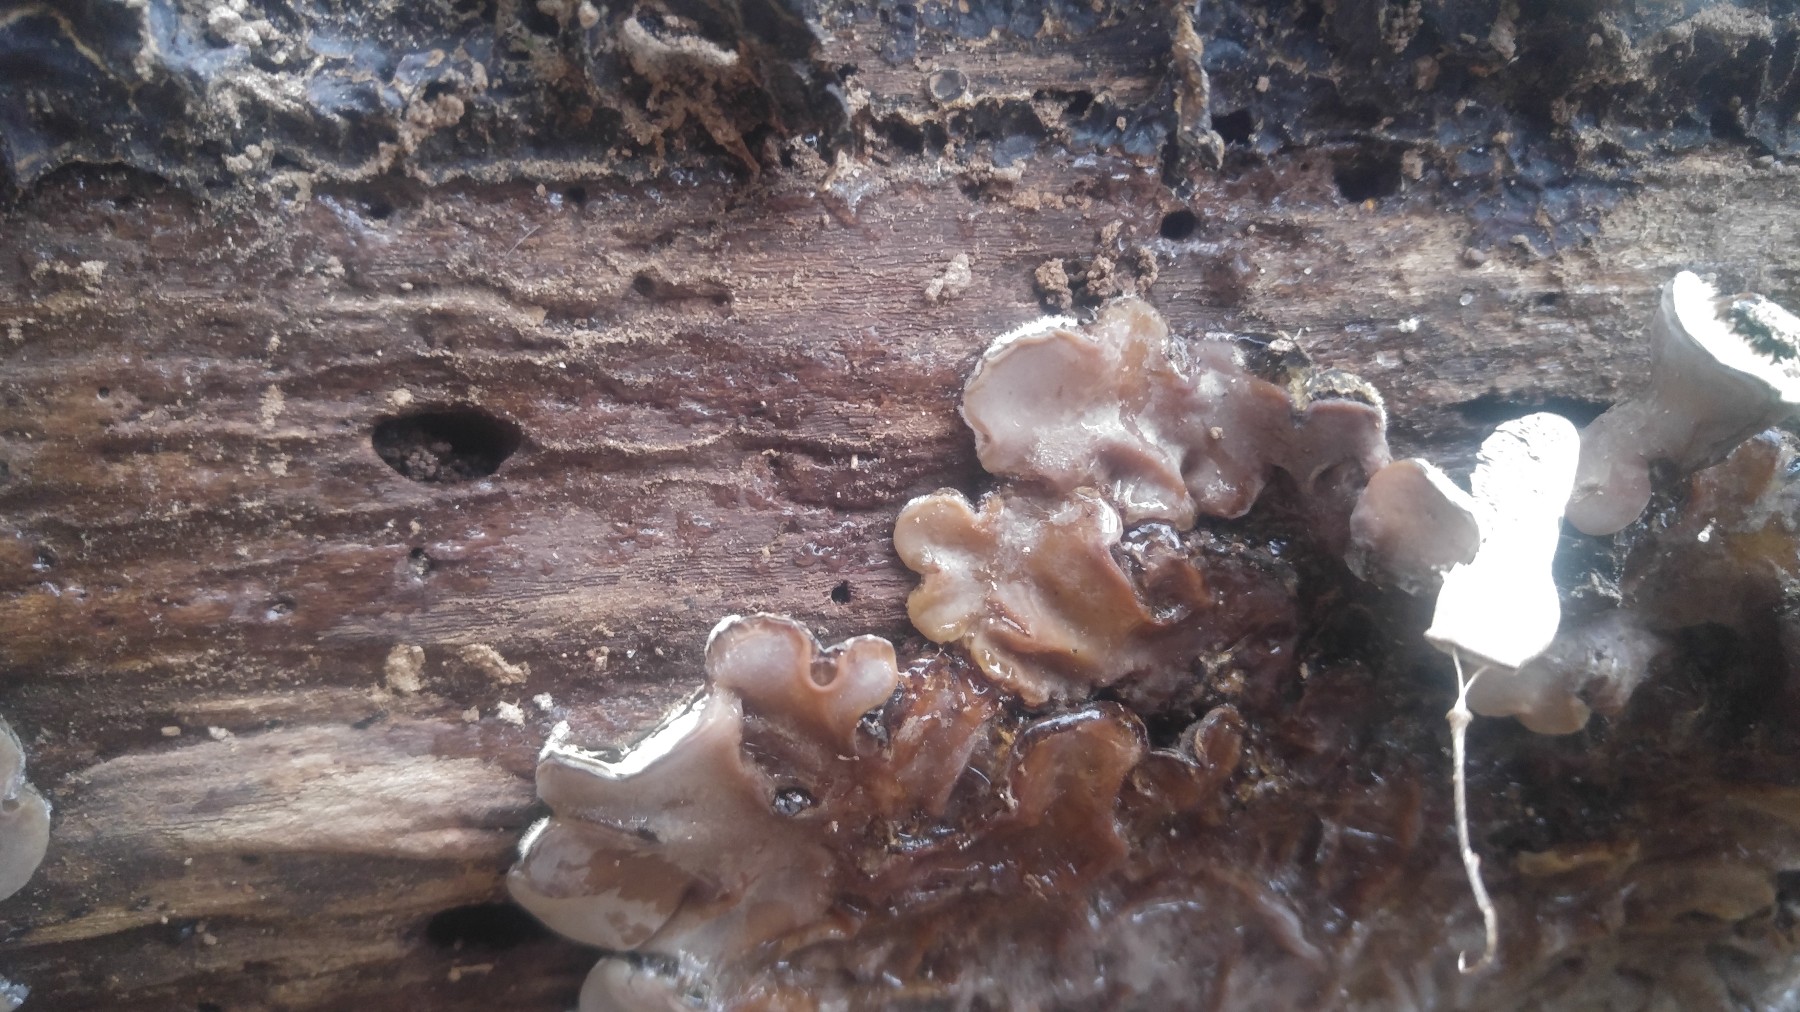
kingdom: Fungi
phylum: Basidiomycota
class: Agaricomycetes
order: Auriculariales
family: Auriculariaceae
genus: Auricularia
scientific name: Auricularia mesenterica
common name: håret judasøre
